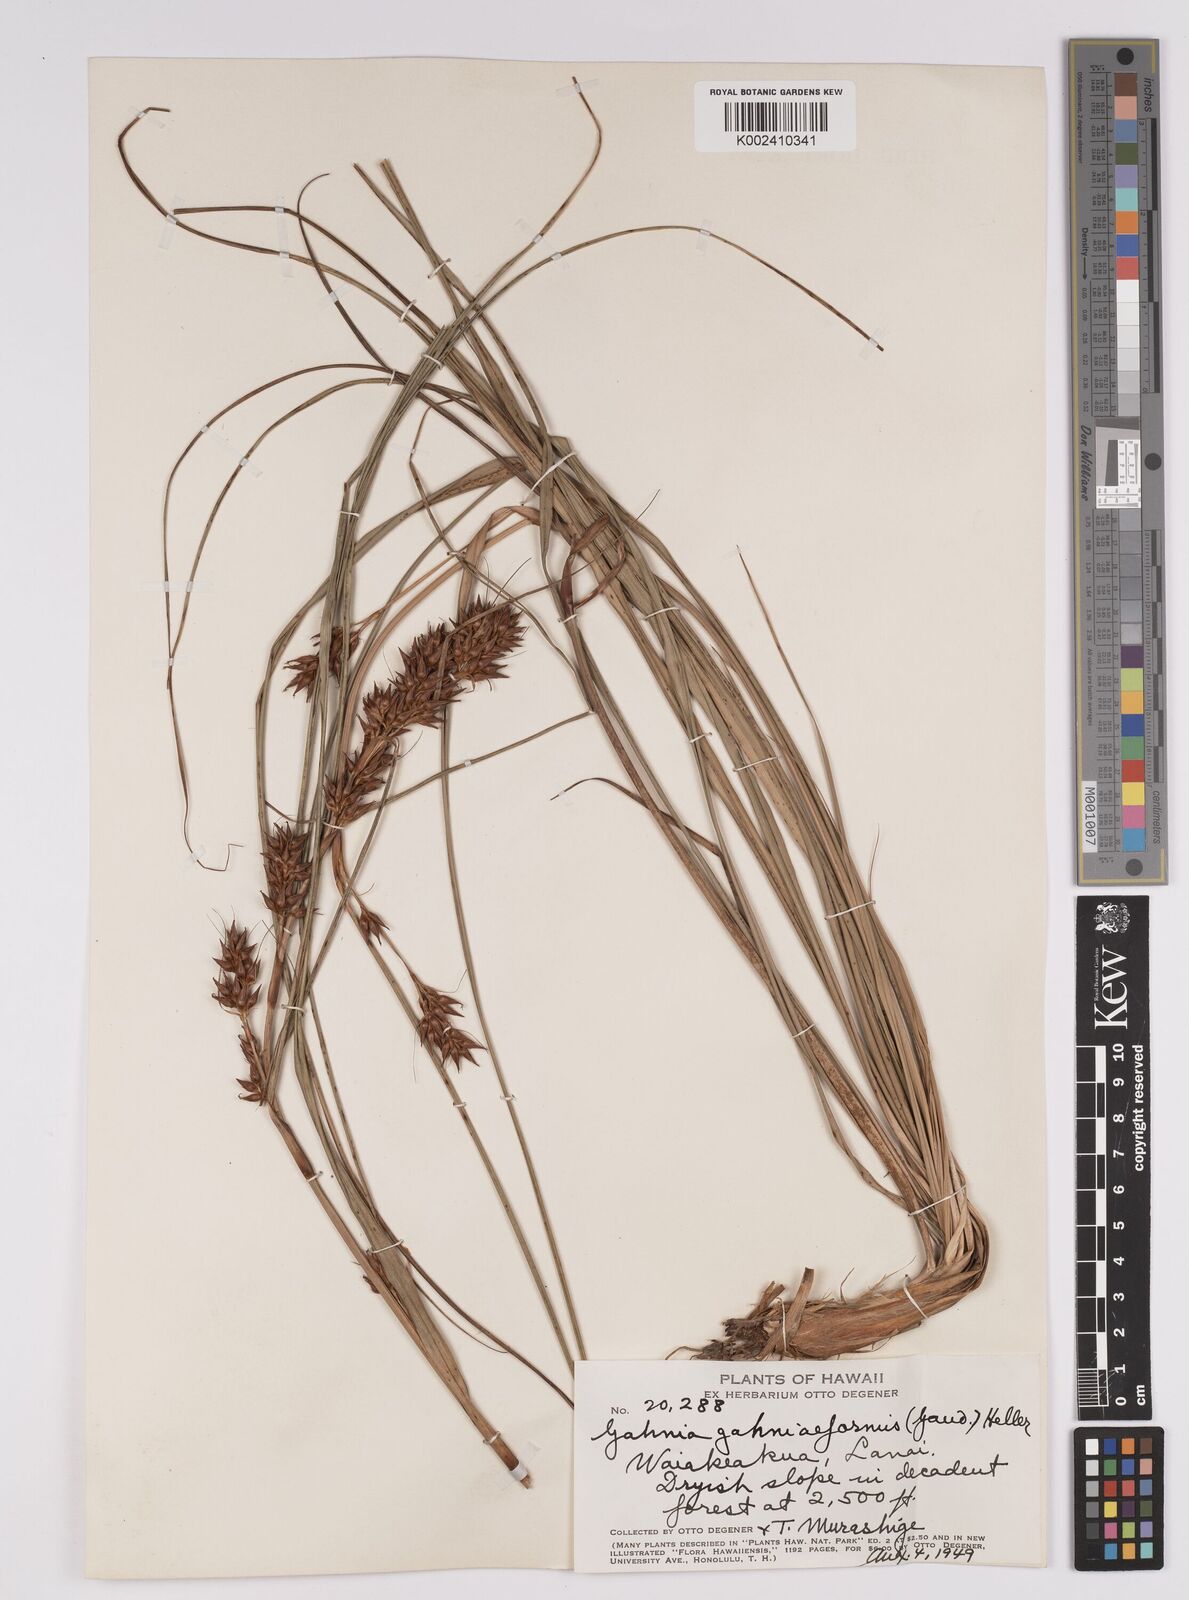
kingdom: Plantae
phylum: Tracheophyta
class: Liliopsida
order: Poales
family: Cyperaceae
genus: Morelotia
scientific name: Morelotia gahniiformis
